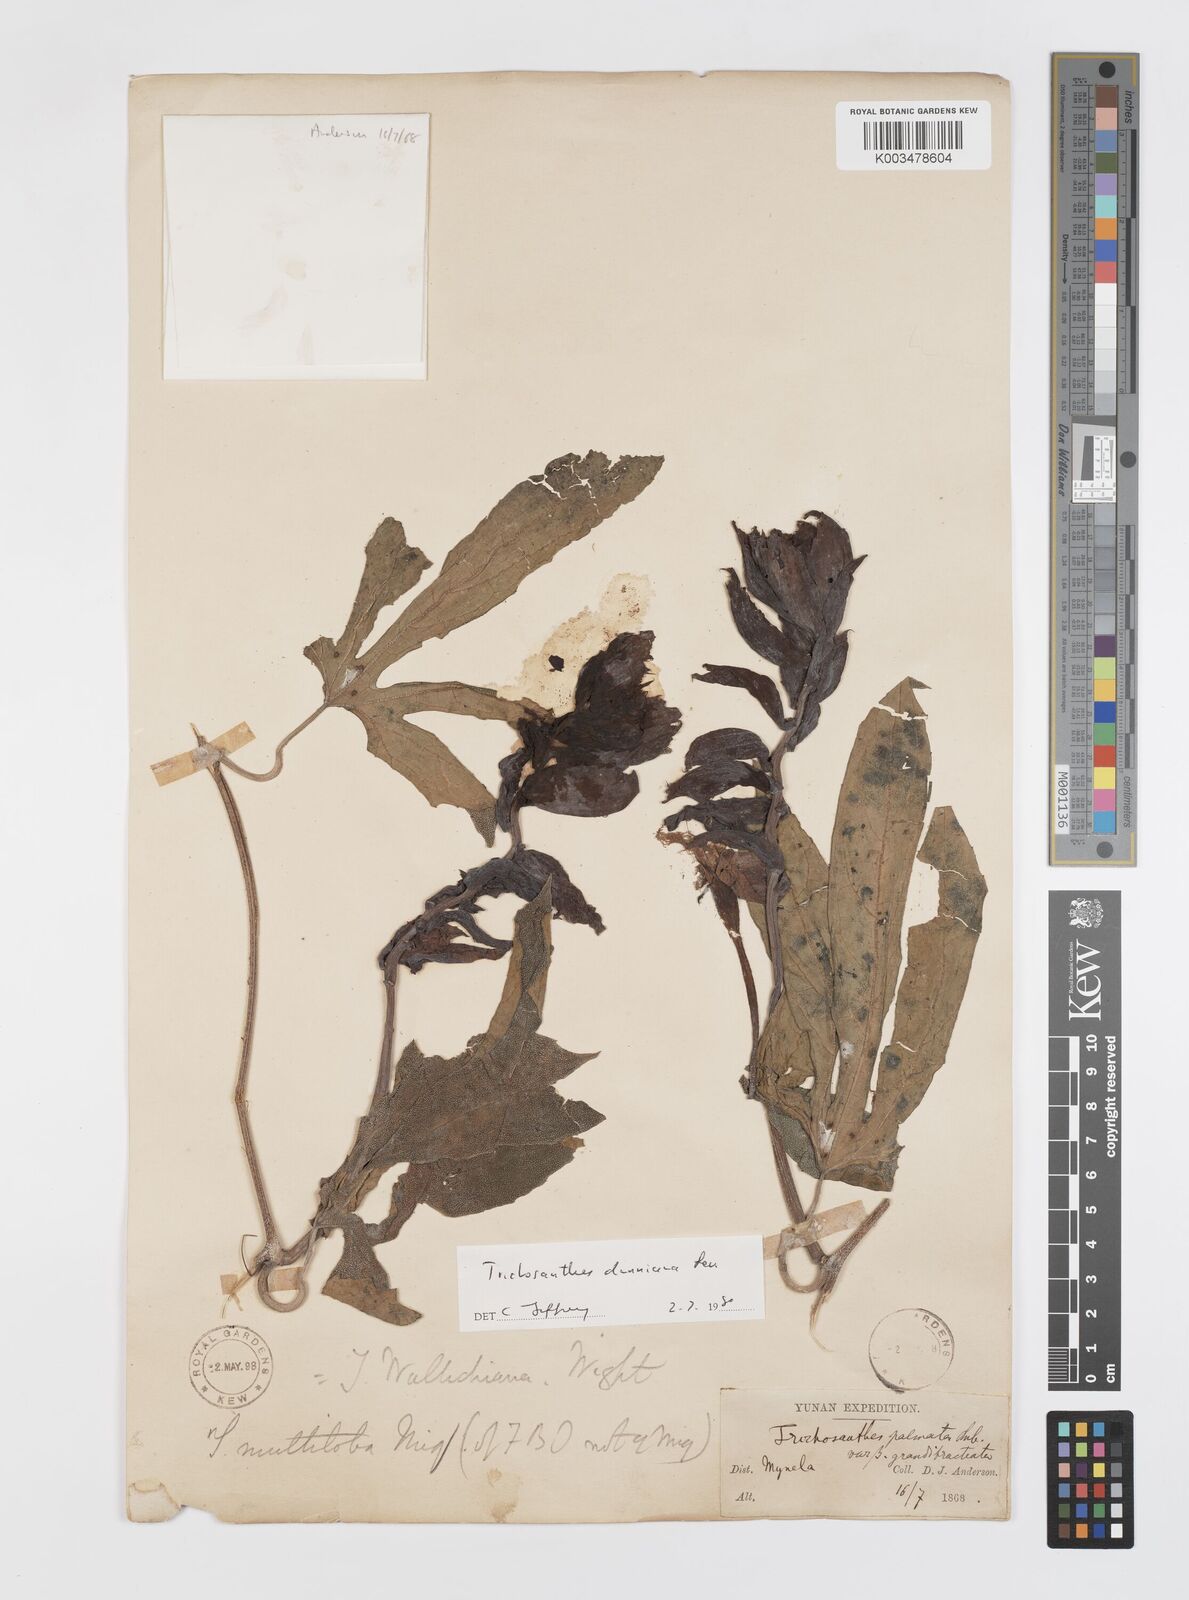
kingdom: Plantae
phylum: Tracheophyta
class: Magnoliopsida
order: Cucurbitales
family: Cucurbitaceae
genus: Trichosanthes
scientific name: Trichosanthes dunniana
